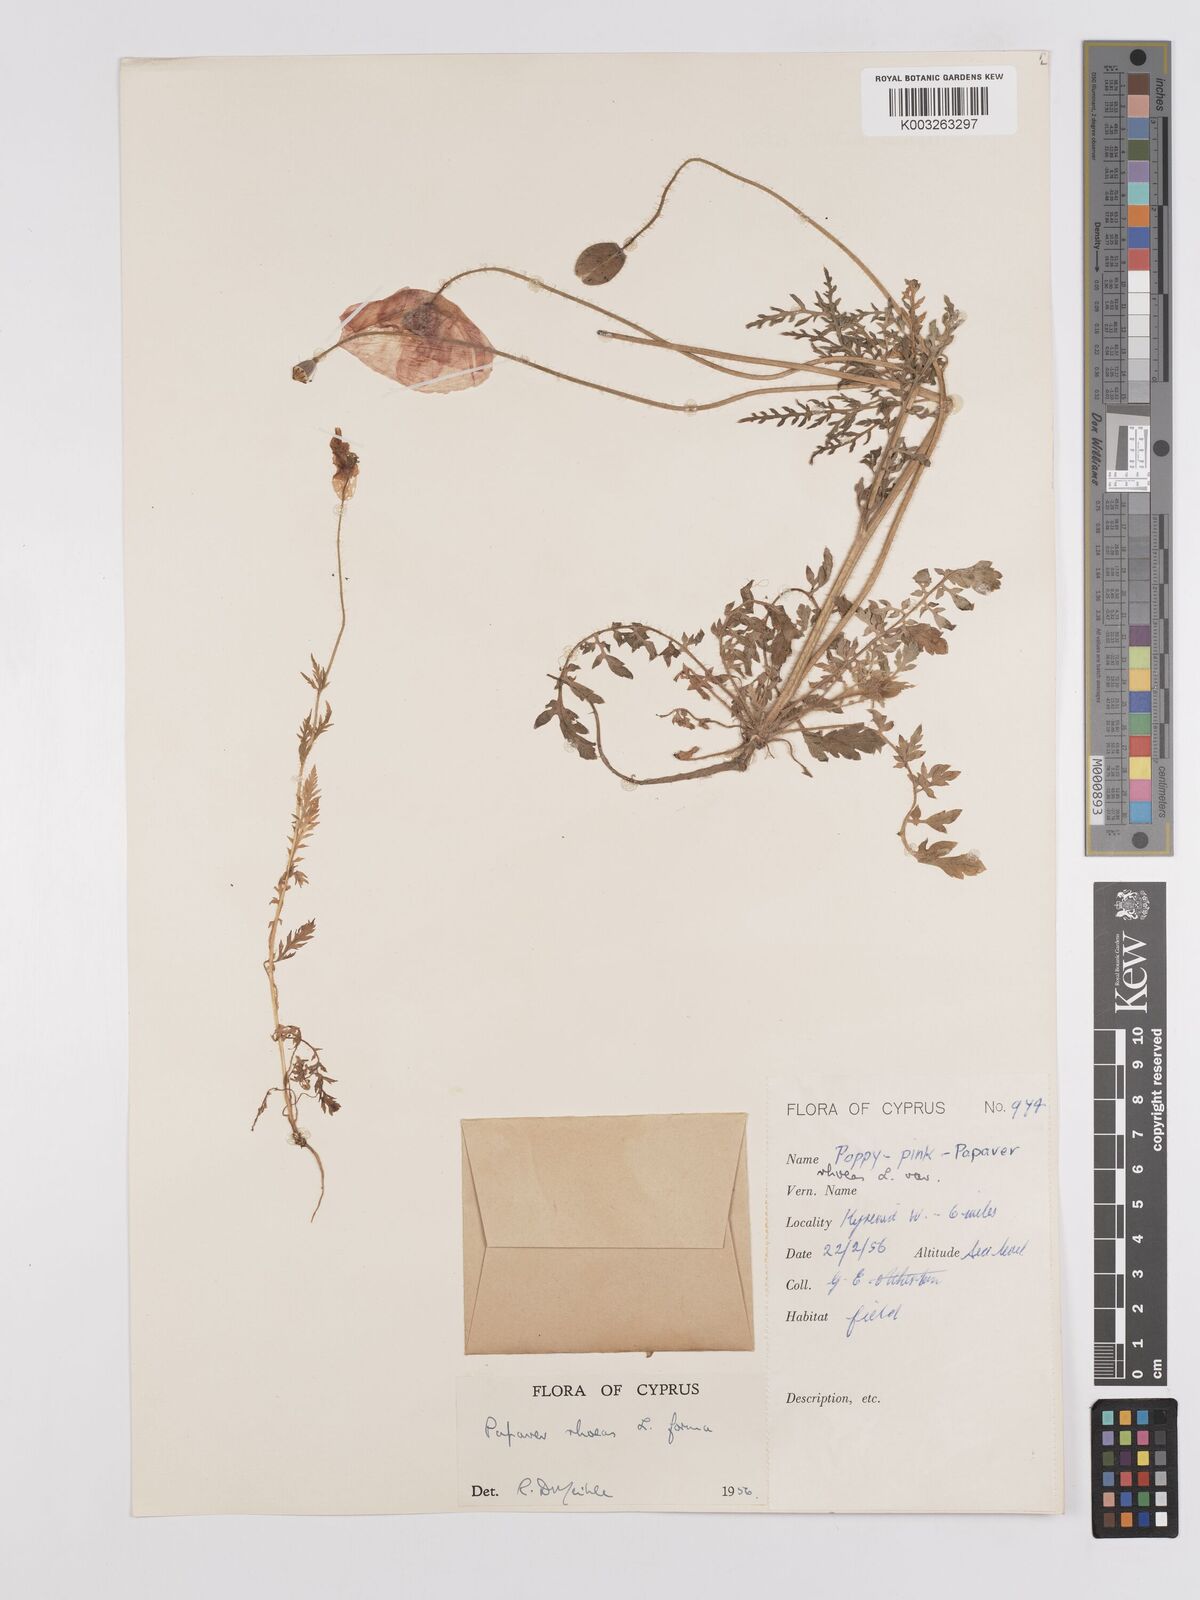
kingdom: Plantae
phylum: Tracheophyta
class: Magnoliopsida
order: Ranunculales
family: Papaveraceae
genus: Papaver
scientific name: Papaver rhoeas
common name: Corn poppy
